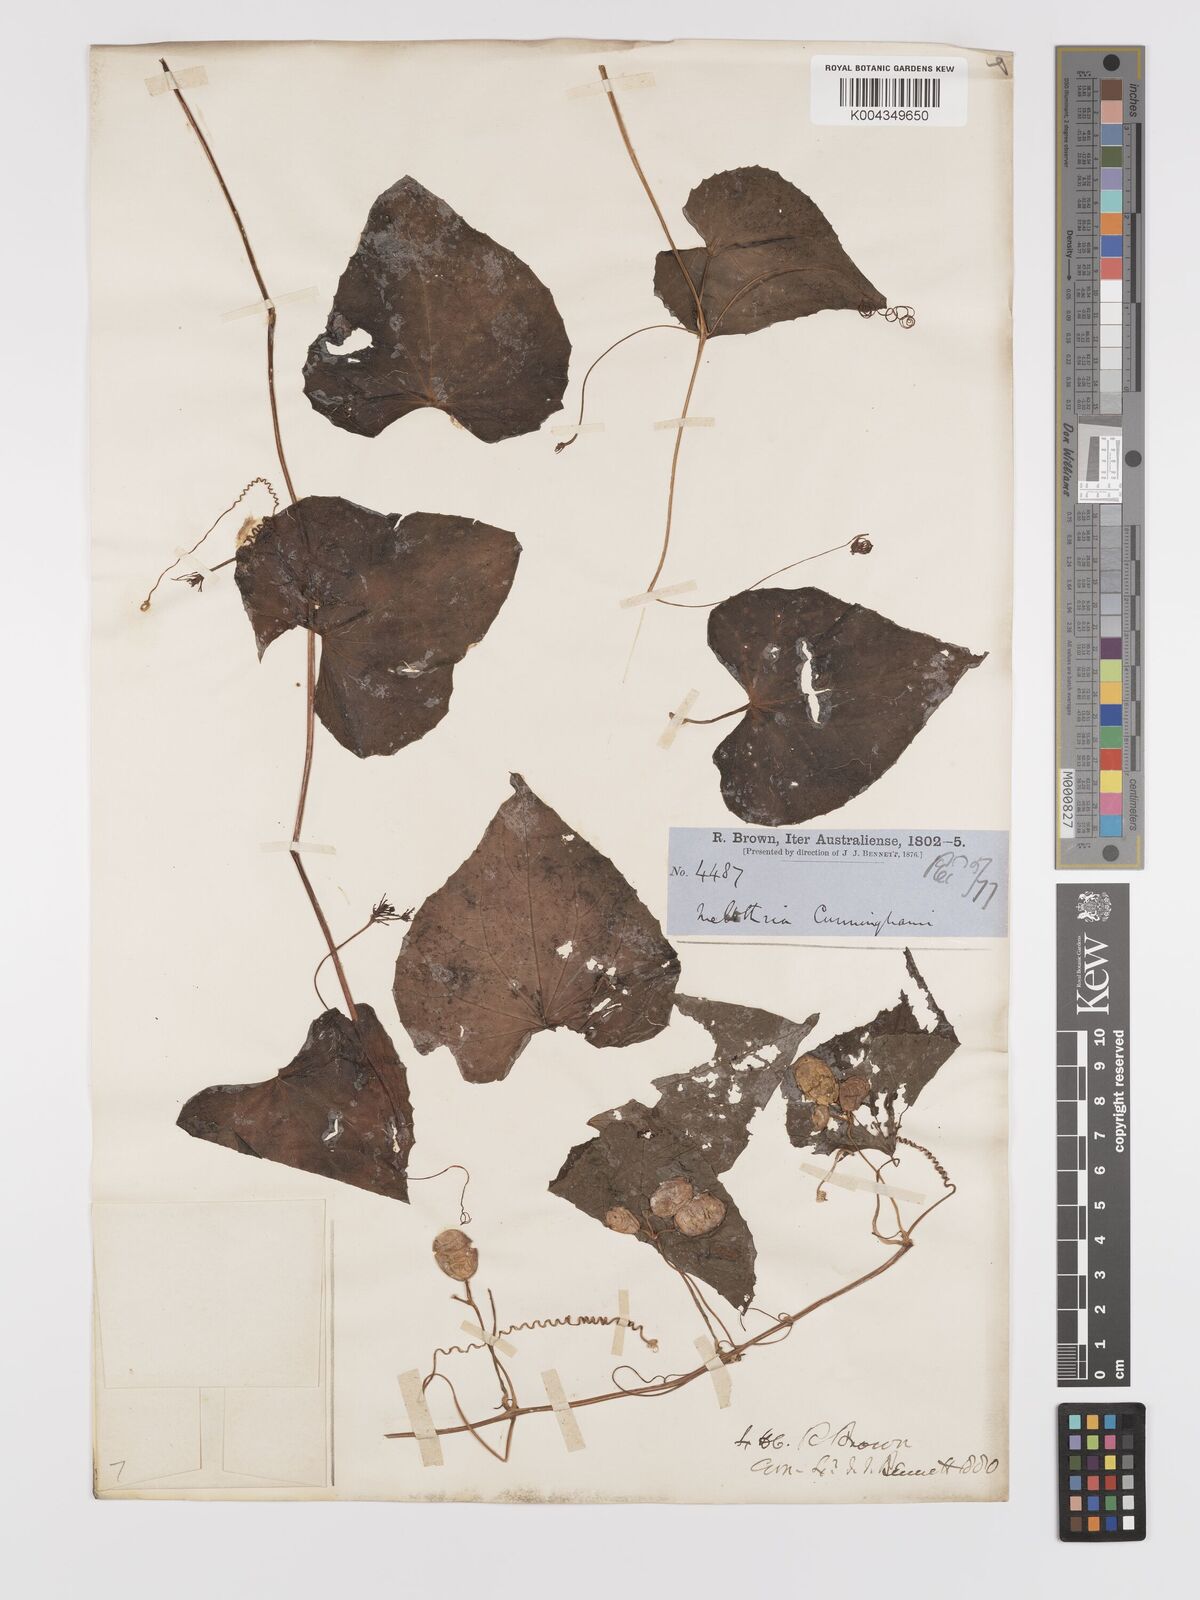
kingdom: Plantae
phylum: Tracheophyta
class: Magnoliopsida
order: Cucurbitales
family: Cucurbitaceae
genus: Zehneria
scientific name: Zehneria mucronata
